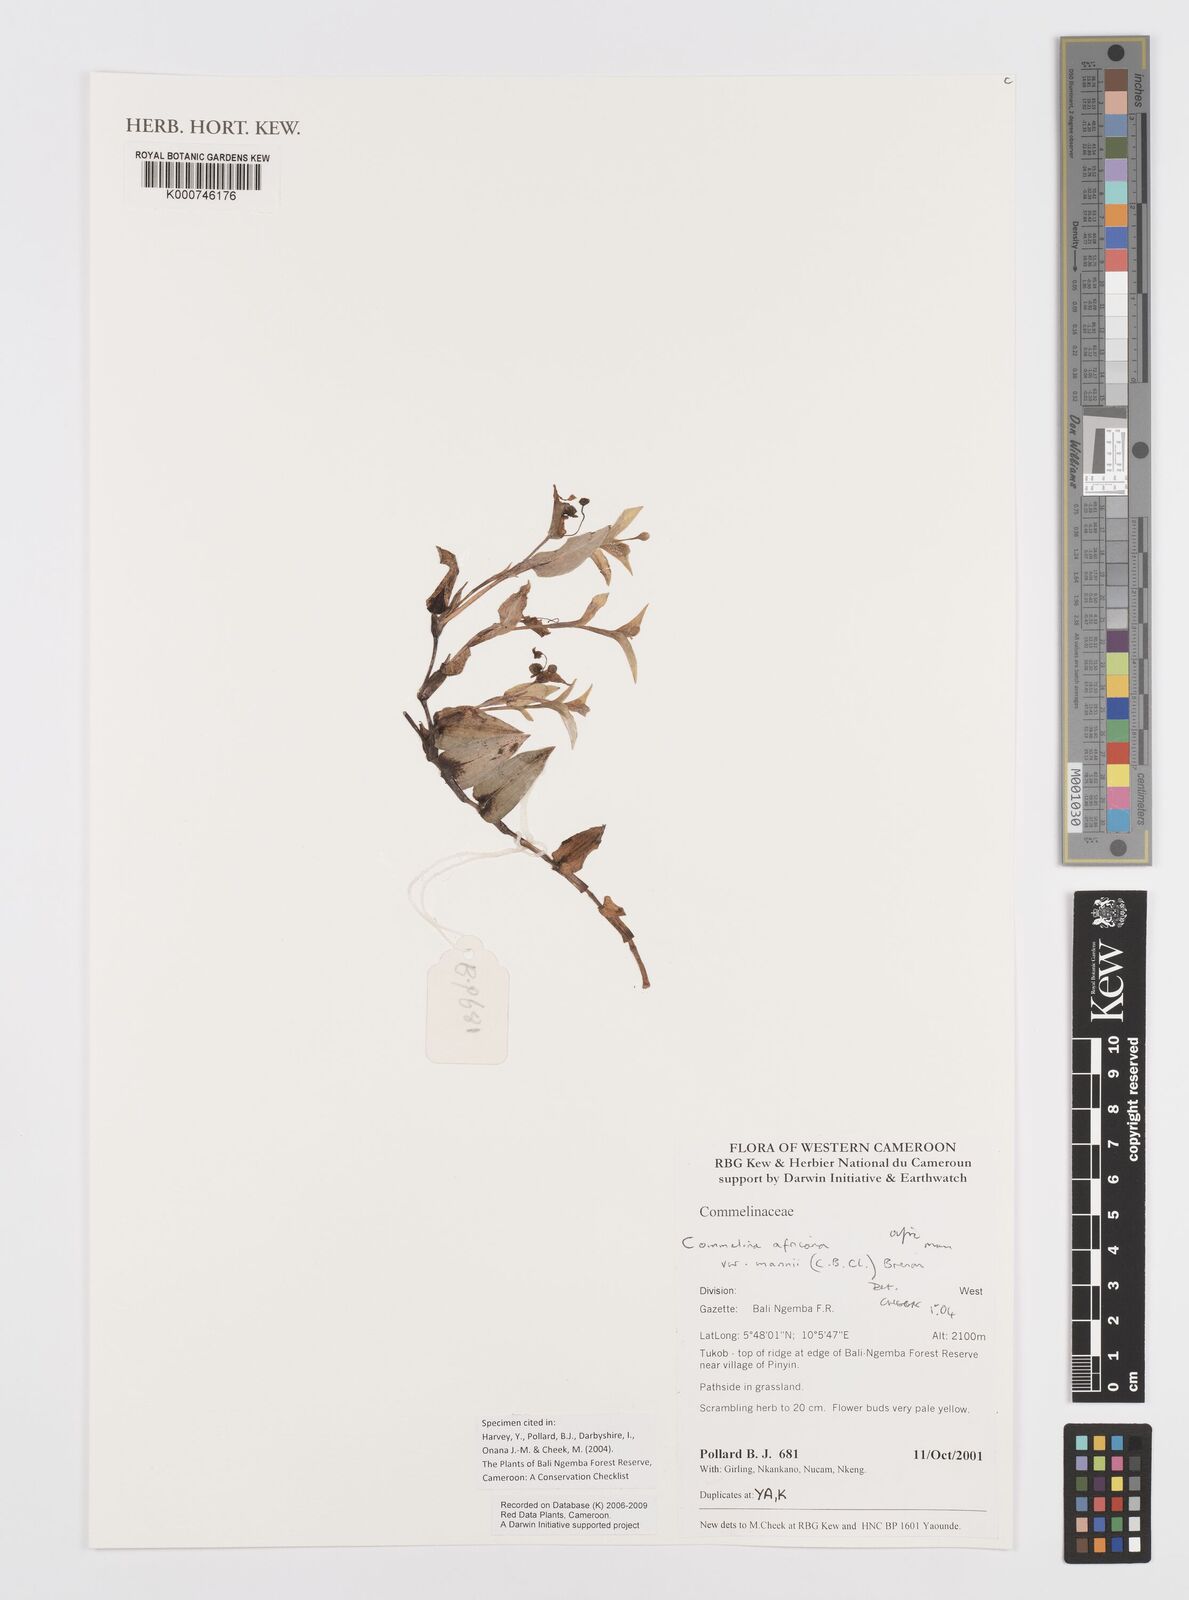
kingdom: Plantae
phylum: Tracheophyta
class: Liliopsida
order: Commelinales
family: Commelinaceae
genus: Commelina
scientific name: Commelina africana
